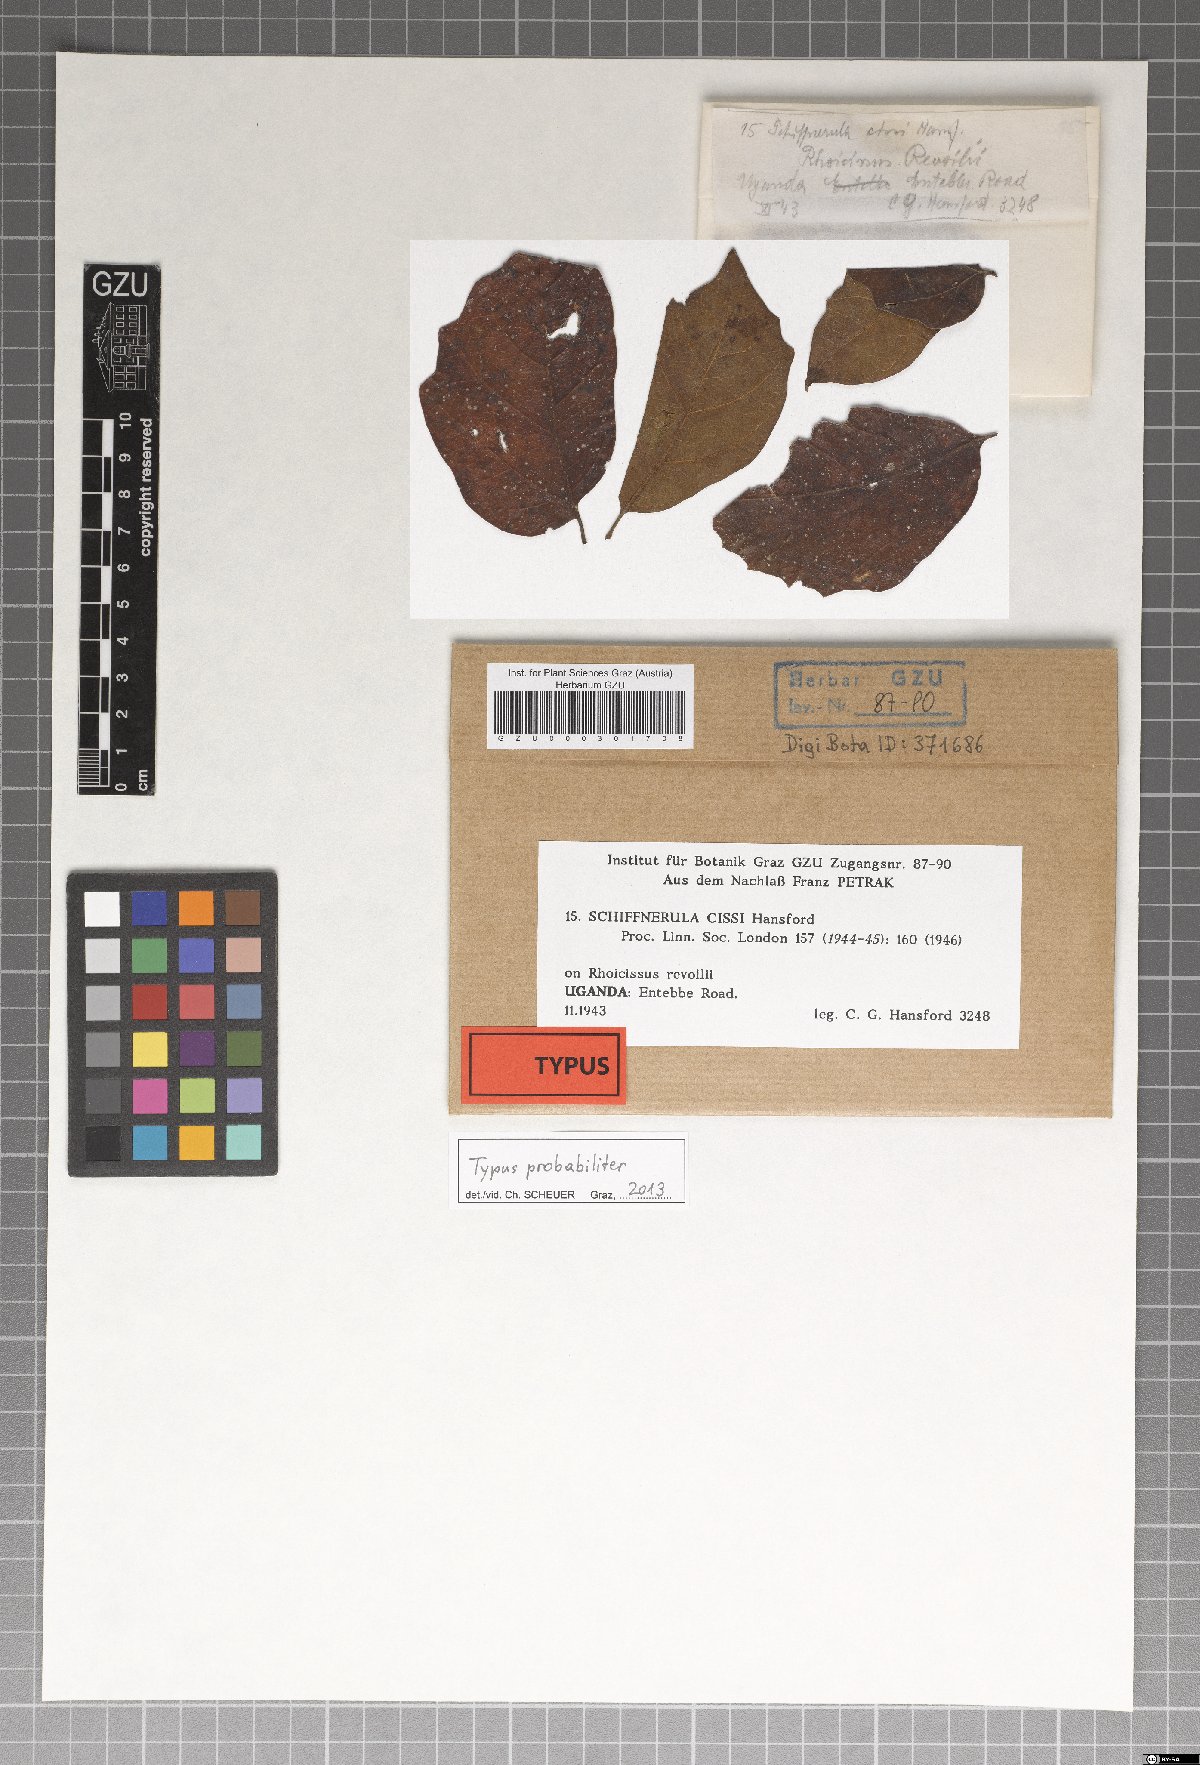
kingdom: Fungi
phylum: Ascomycota
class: Dothideomycetes
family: Englerulaceae
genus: Schiffnerula
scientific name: Schiffnerula cissi
